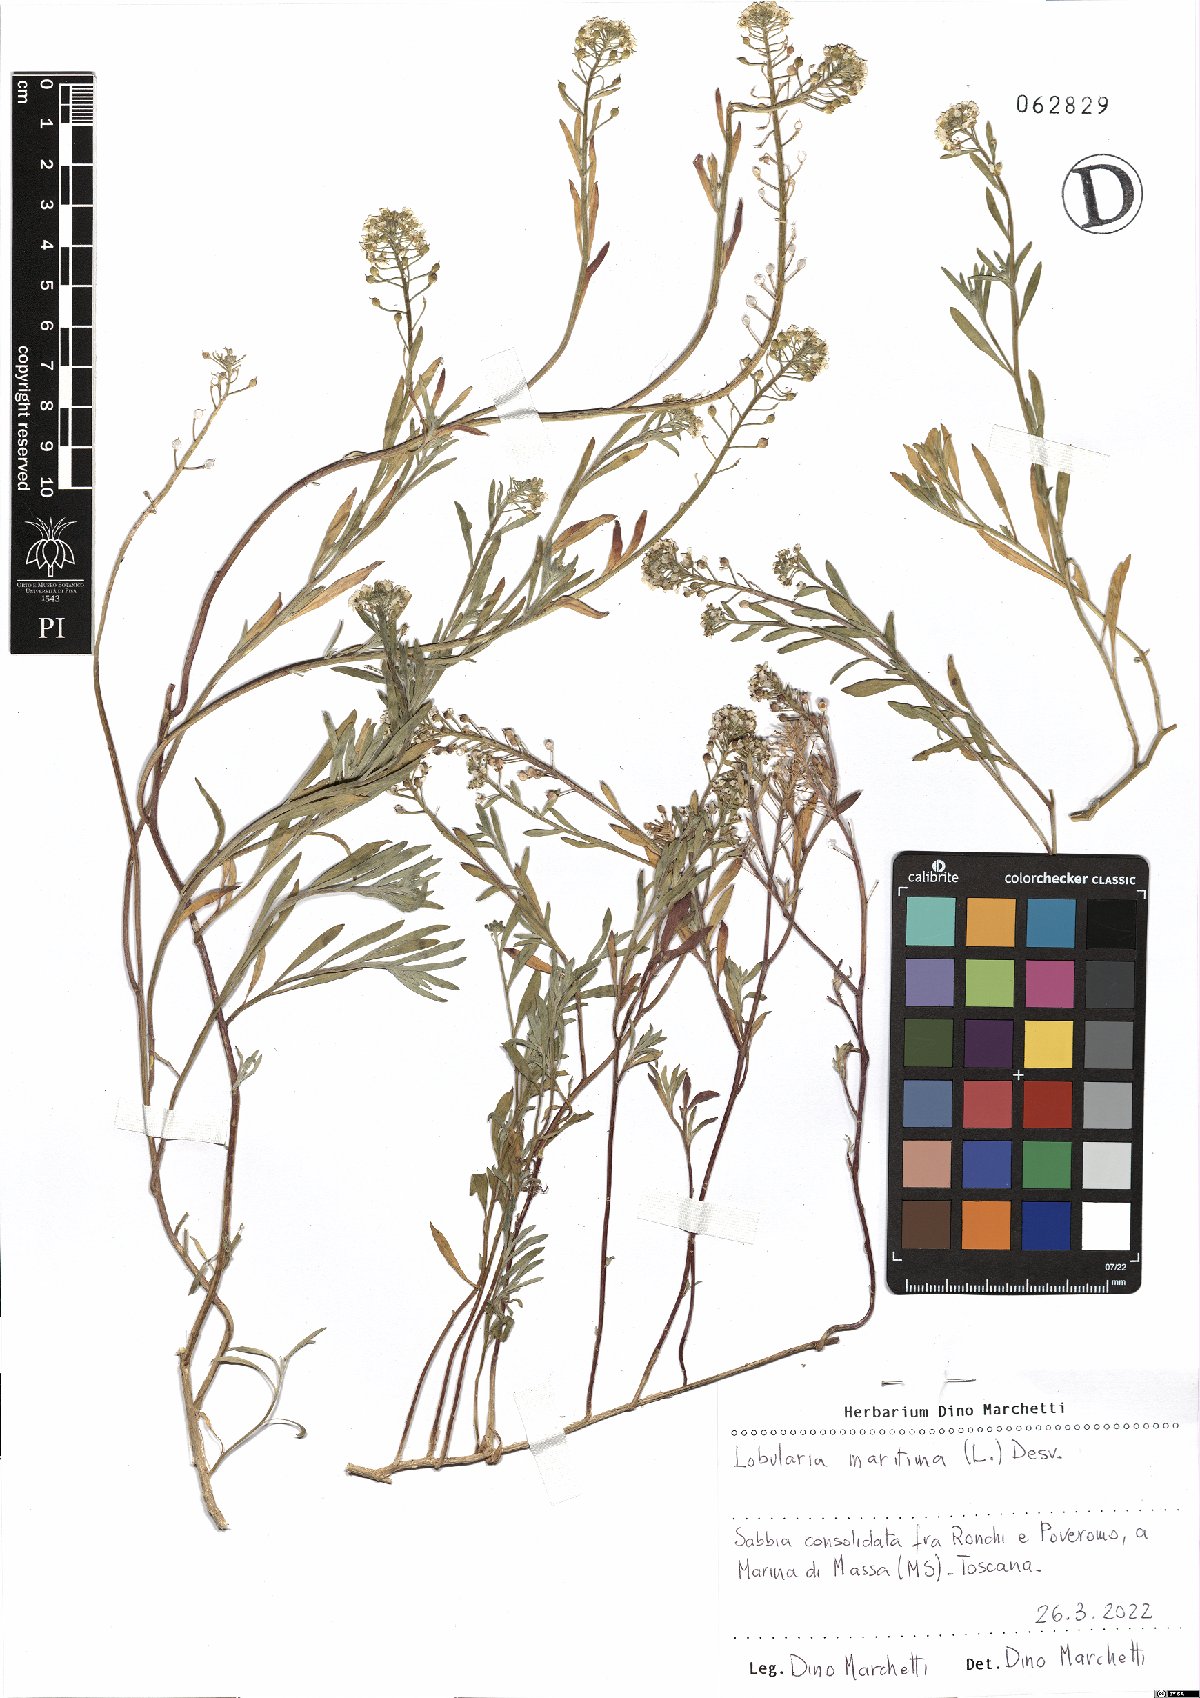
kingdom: Plantae
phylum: Tracheophyta
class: Magnoliopsida
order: Brassicales
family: Brassicaceae
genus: Lobularia
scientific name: Lobularia maritima
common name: Sweet alison
